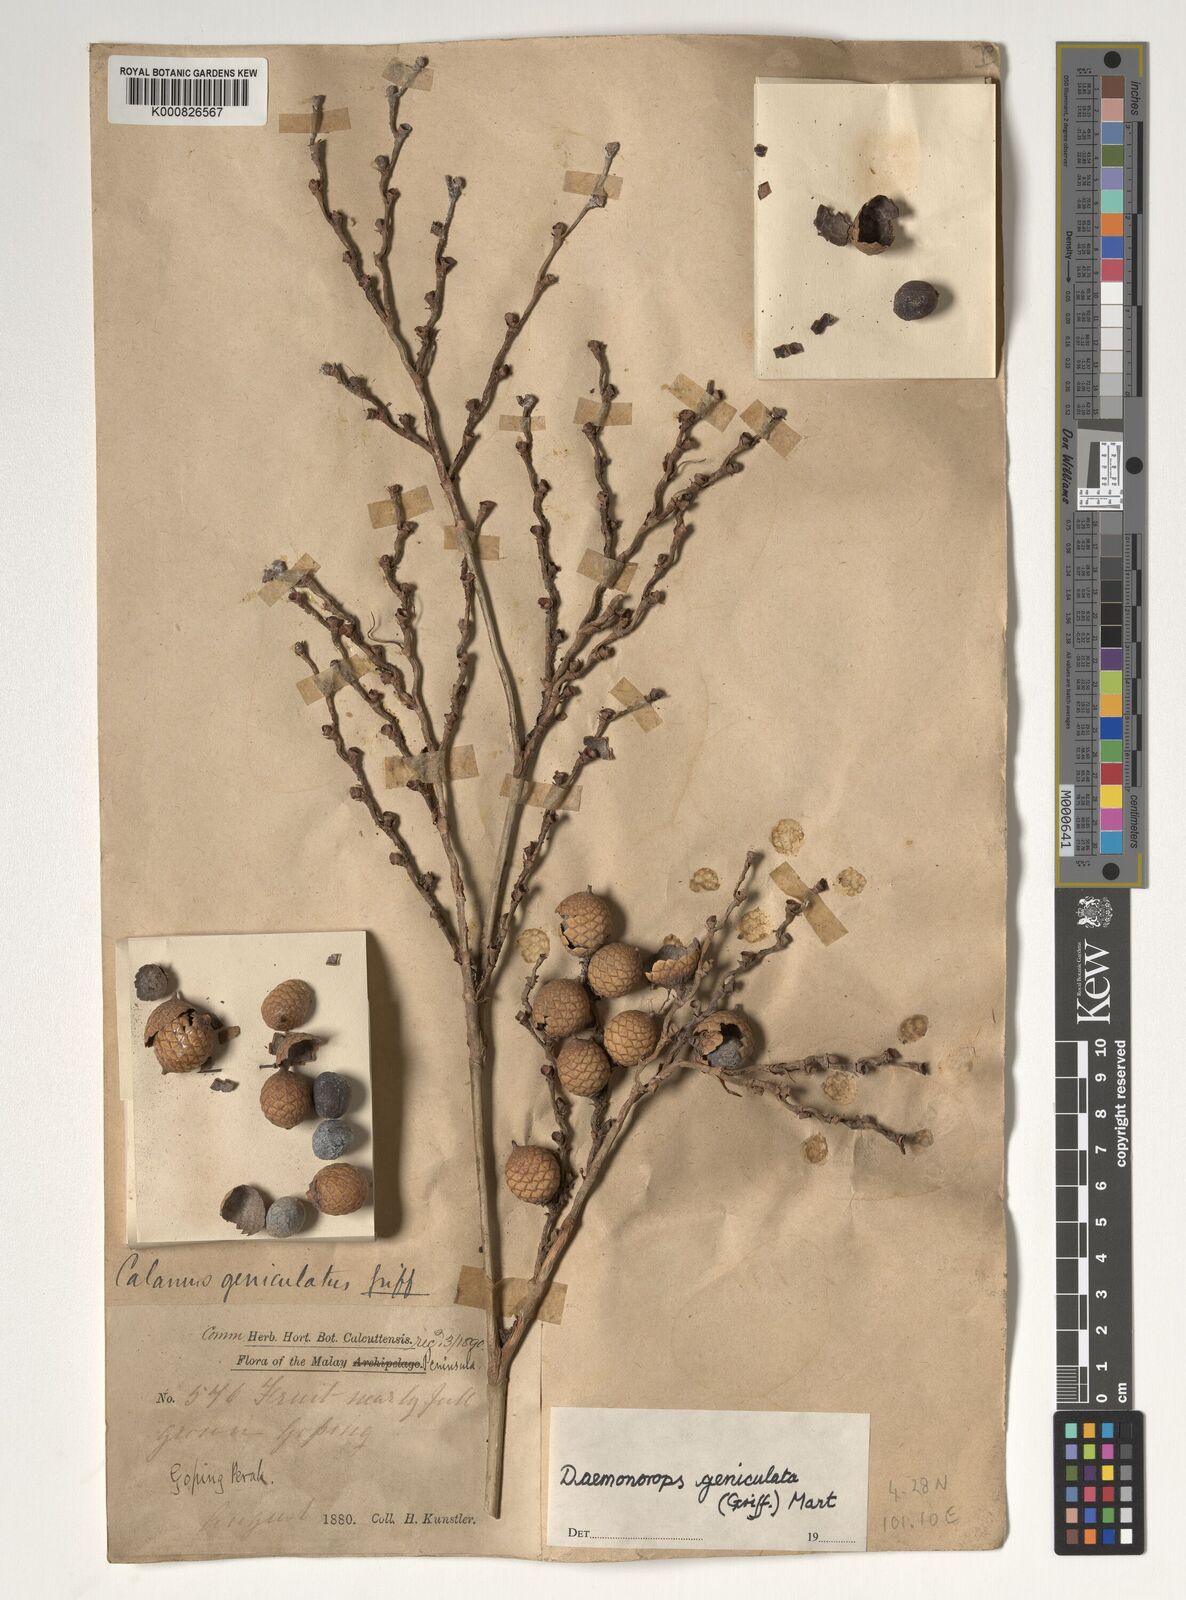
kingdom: Plantae
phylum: Tracheophyta
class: Liliopsida
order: Arecales
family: Arecaceae
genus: Calamus
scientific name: Calamus geniculatus
